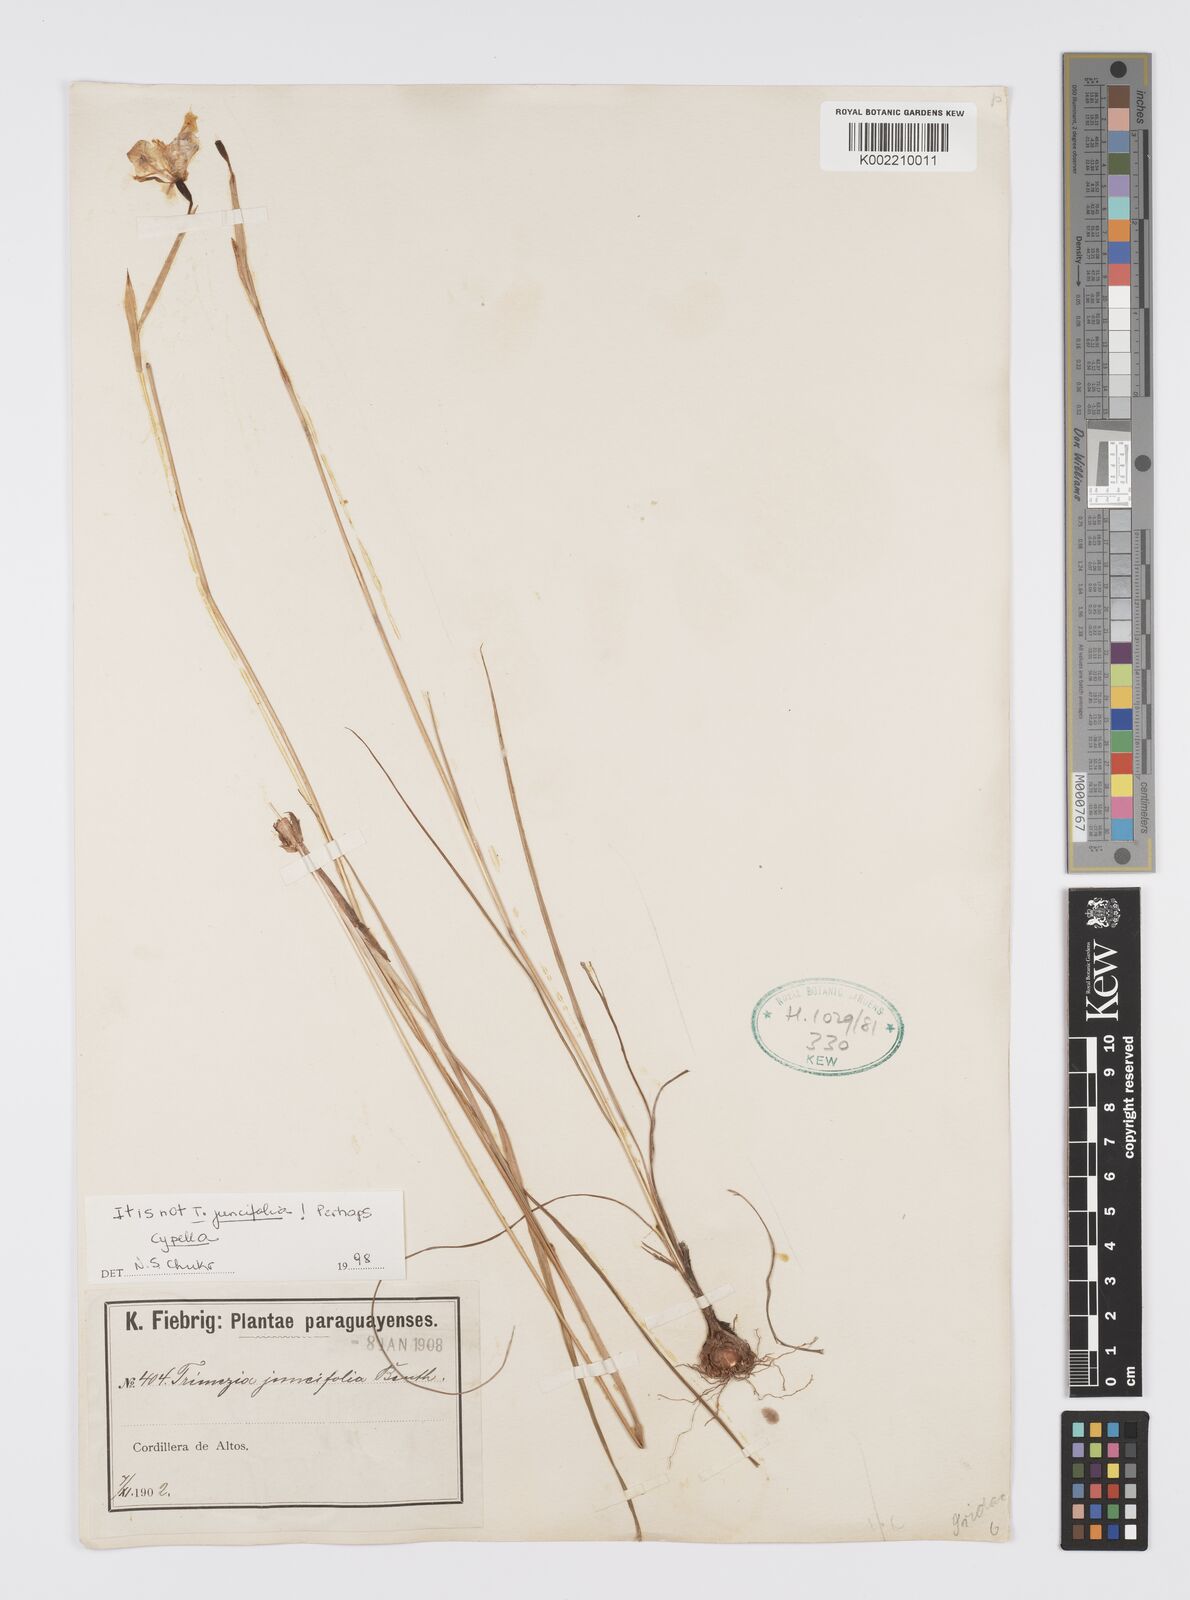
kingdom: Plantae
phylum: Tracheophyta
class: Liliopsida
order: Asparagales
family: Iridaceae
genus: Cypella
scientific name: Cypella
